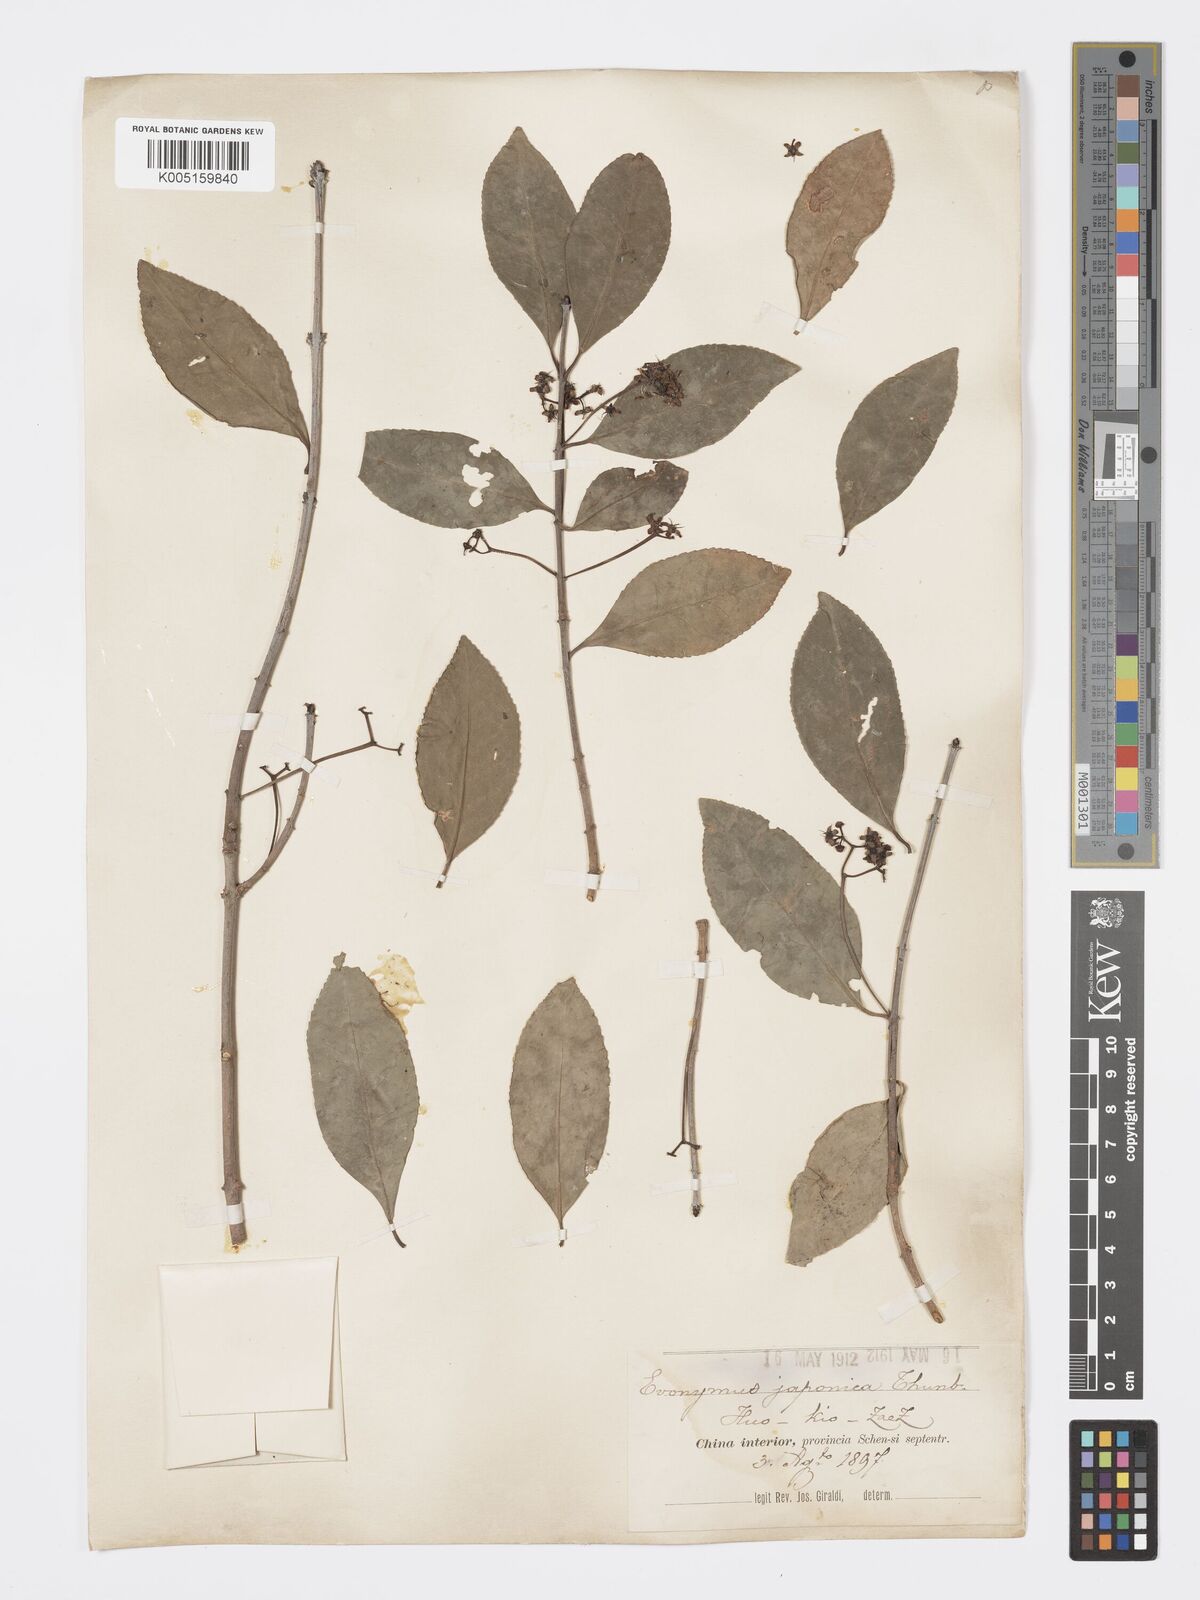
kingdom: Plantae
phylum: Tracheophyta
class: Magnoliopsida
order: Celastrales
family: Celastraceae
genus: Euonymus
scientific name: Euonymus
